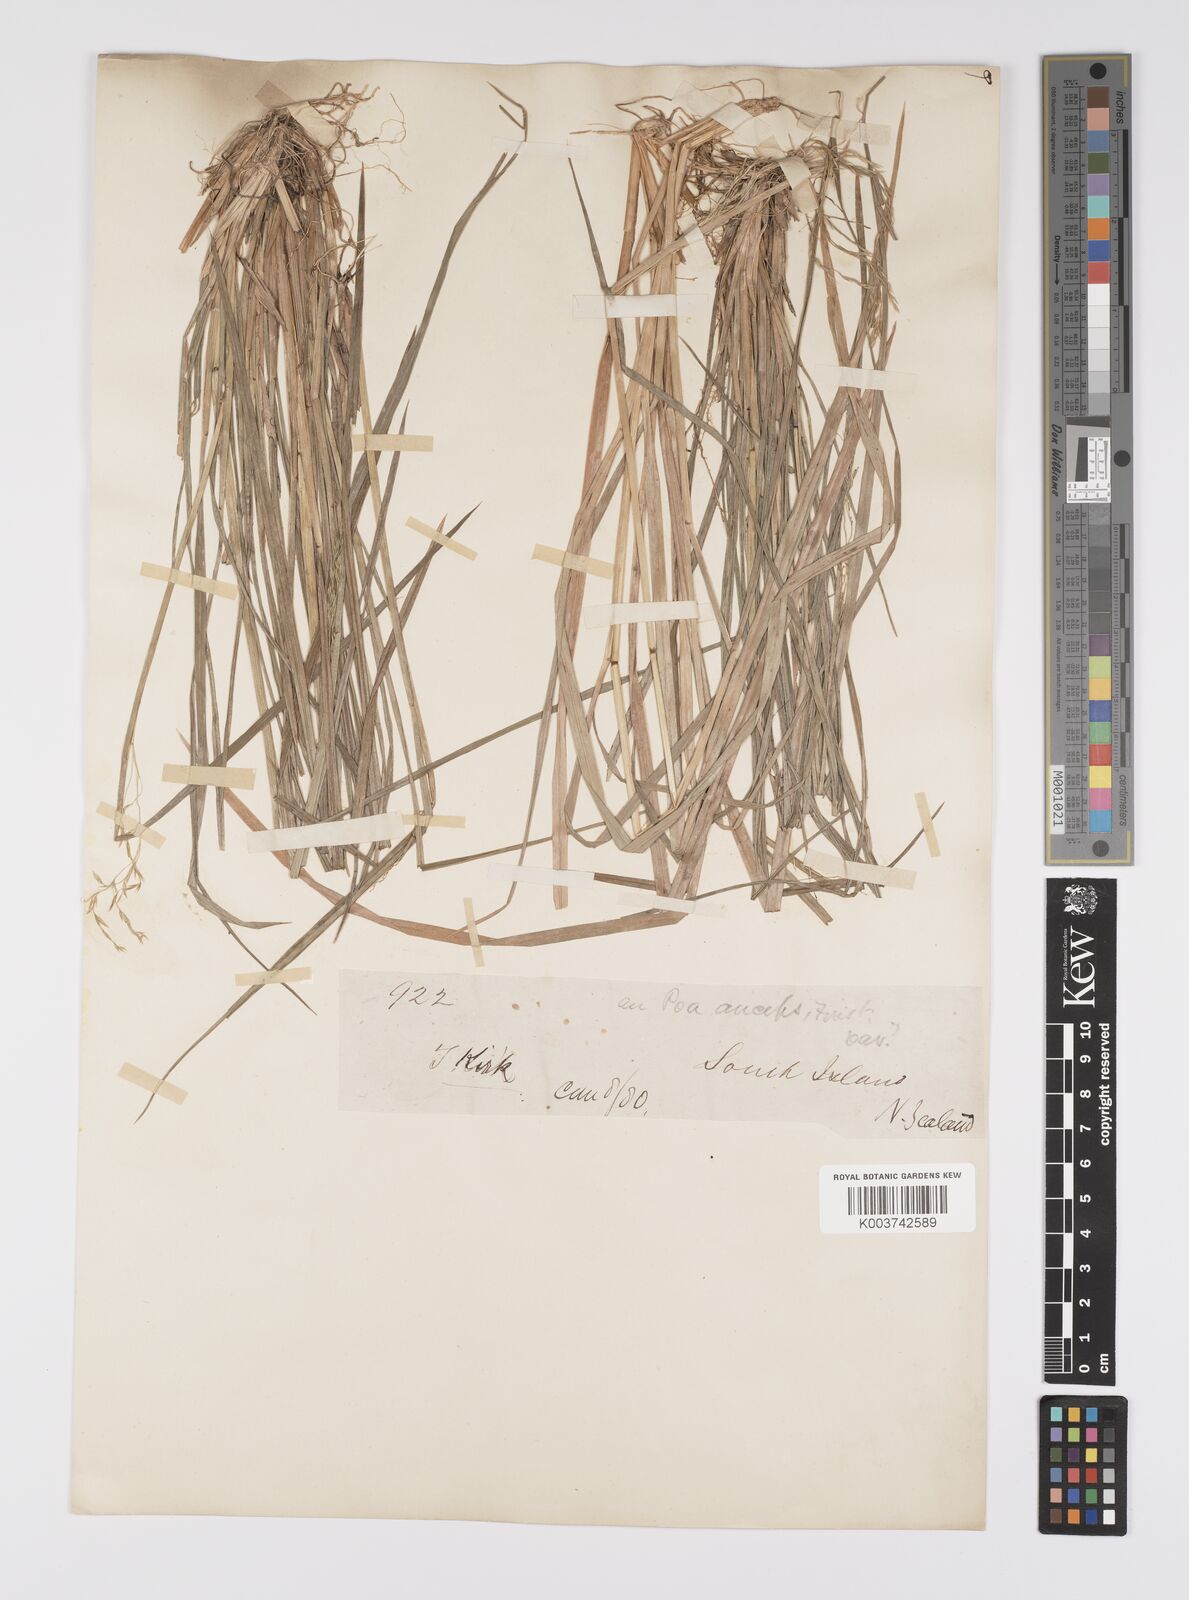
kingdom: Plantae
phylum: Tracheophyta
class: Liliopsida
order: Poales
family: Poaceae
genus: Poa
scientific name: Poa anceps
